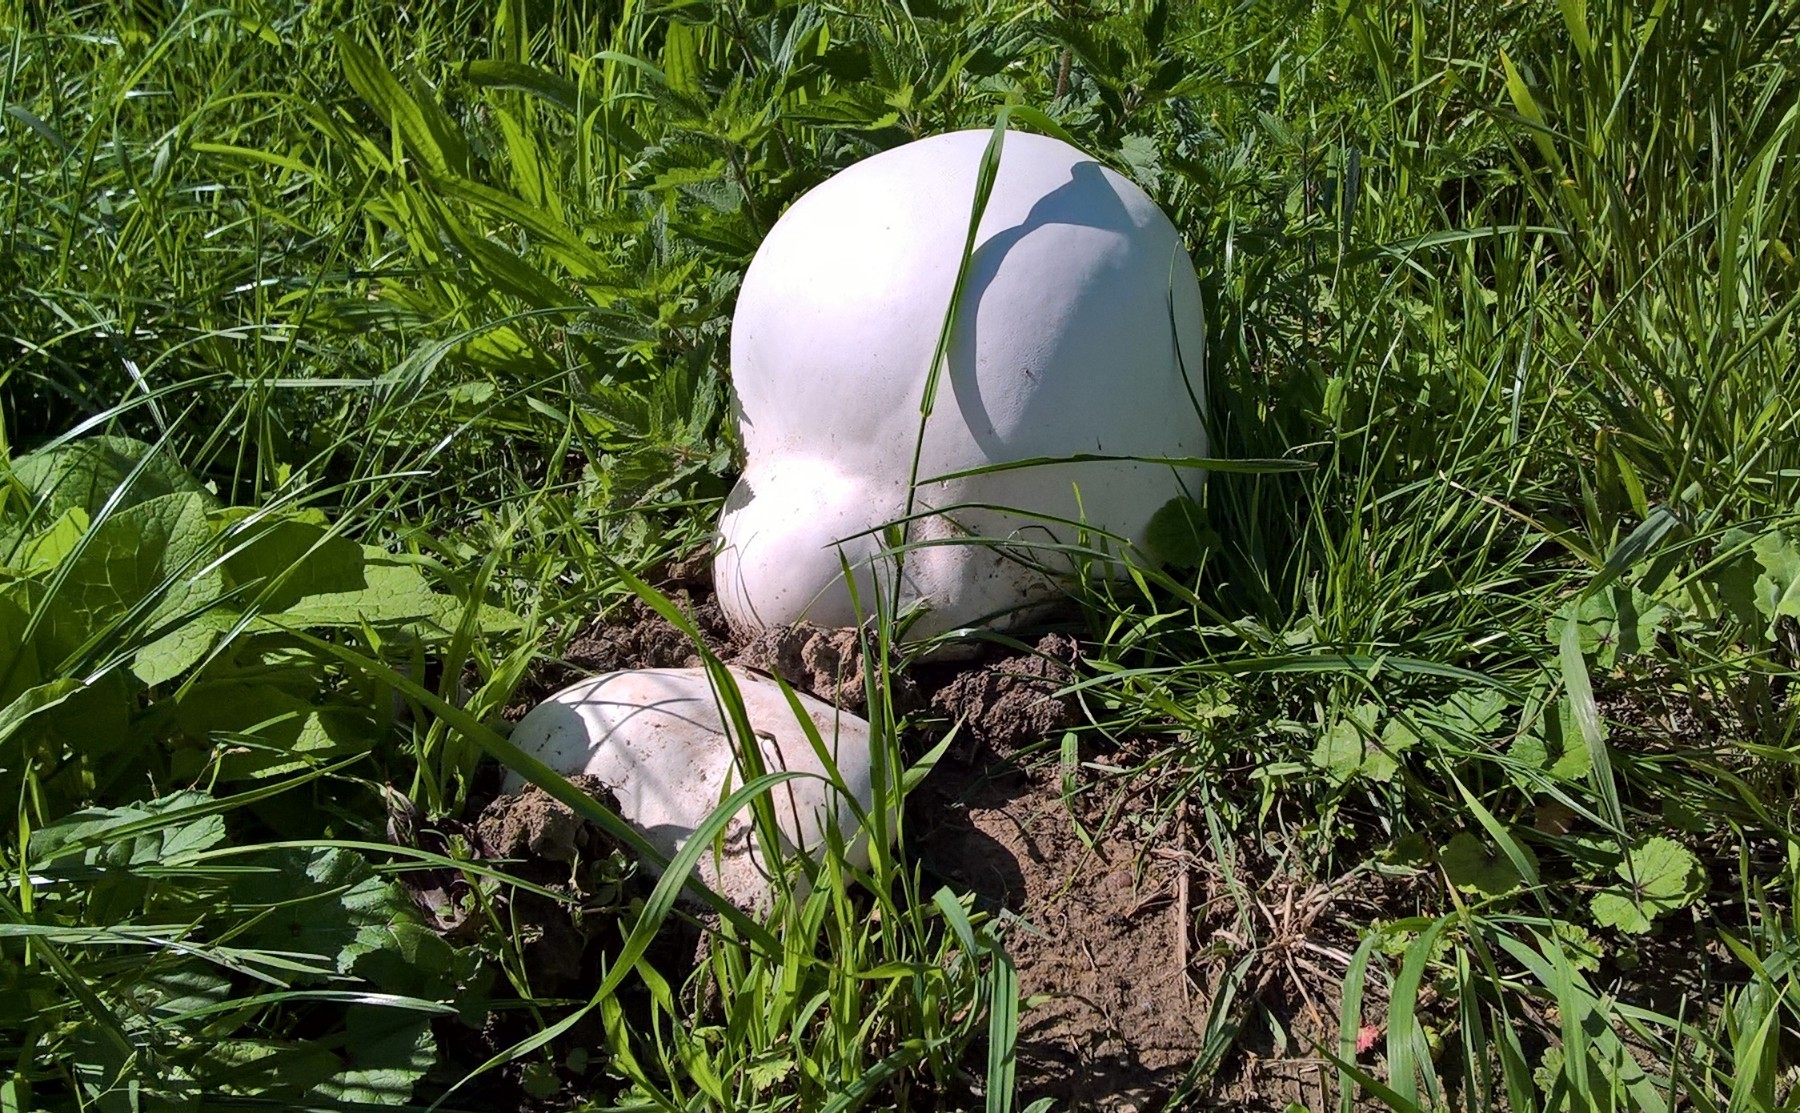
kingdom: Fungi
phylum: Basidiomycota
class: Agaricomycetes
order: Agaricales
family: Lycoperdaceae
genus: Calvatia
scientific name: Calvatia gigantea
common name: kæmpestøvbold
